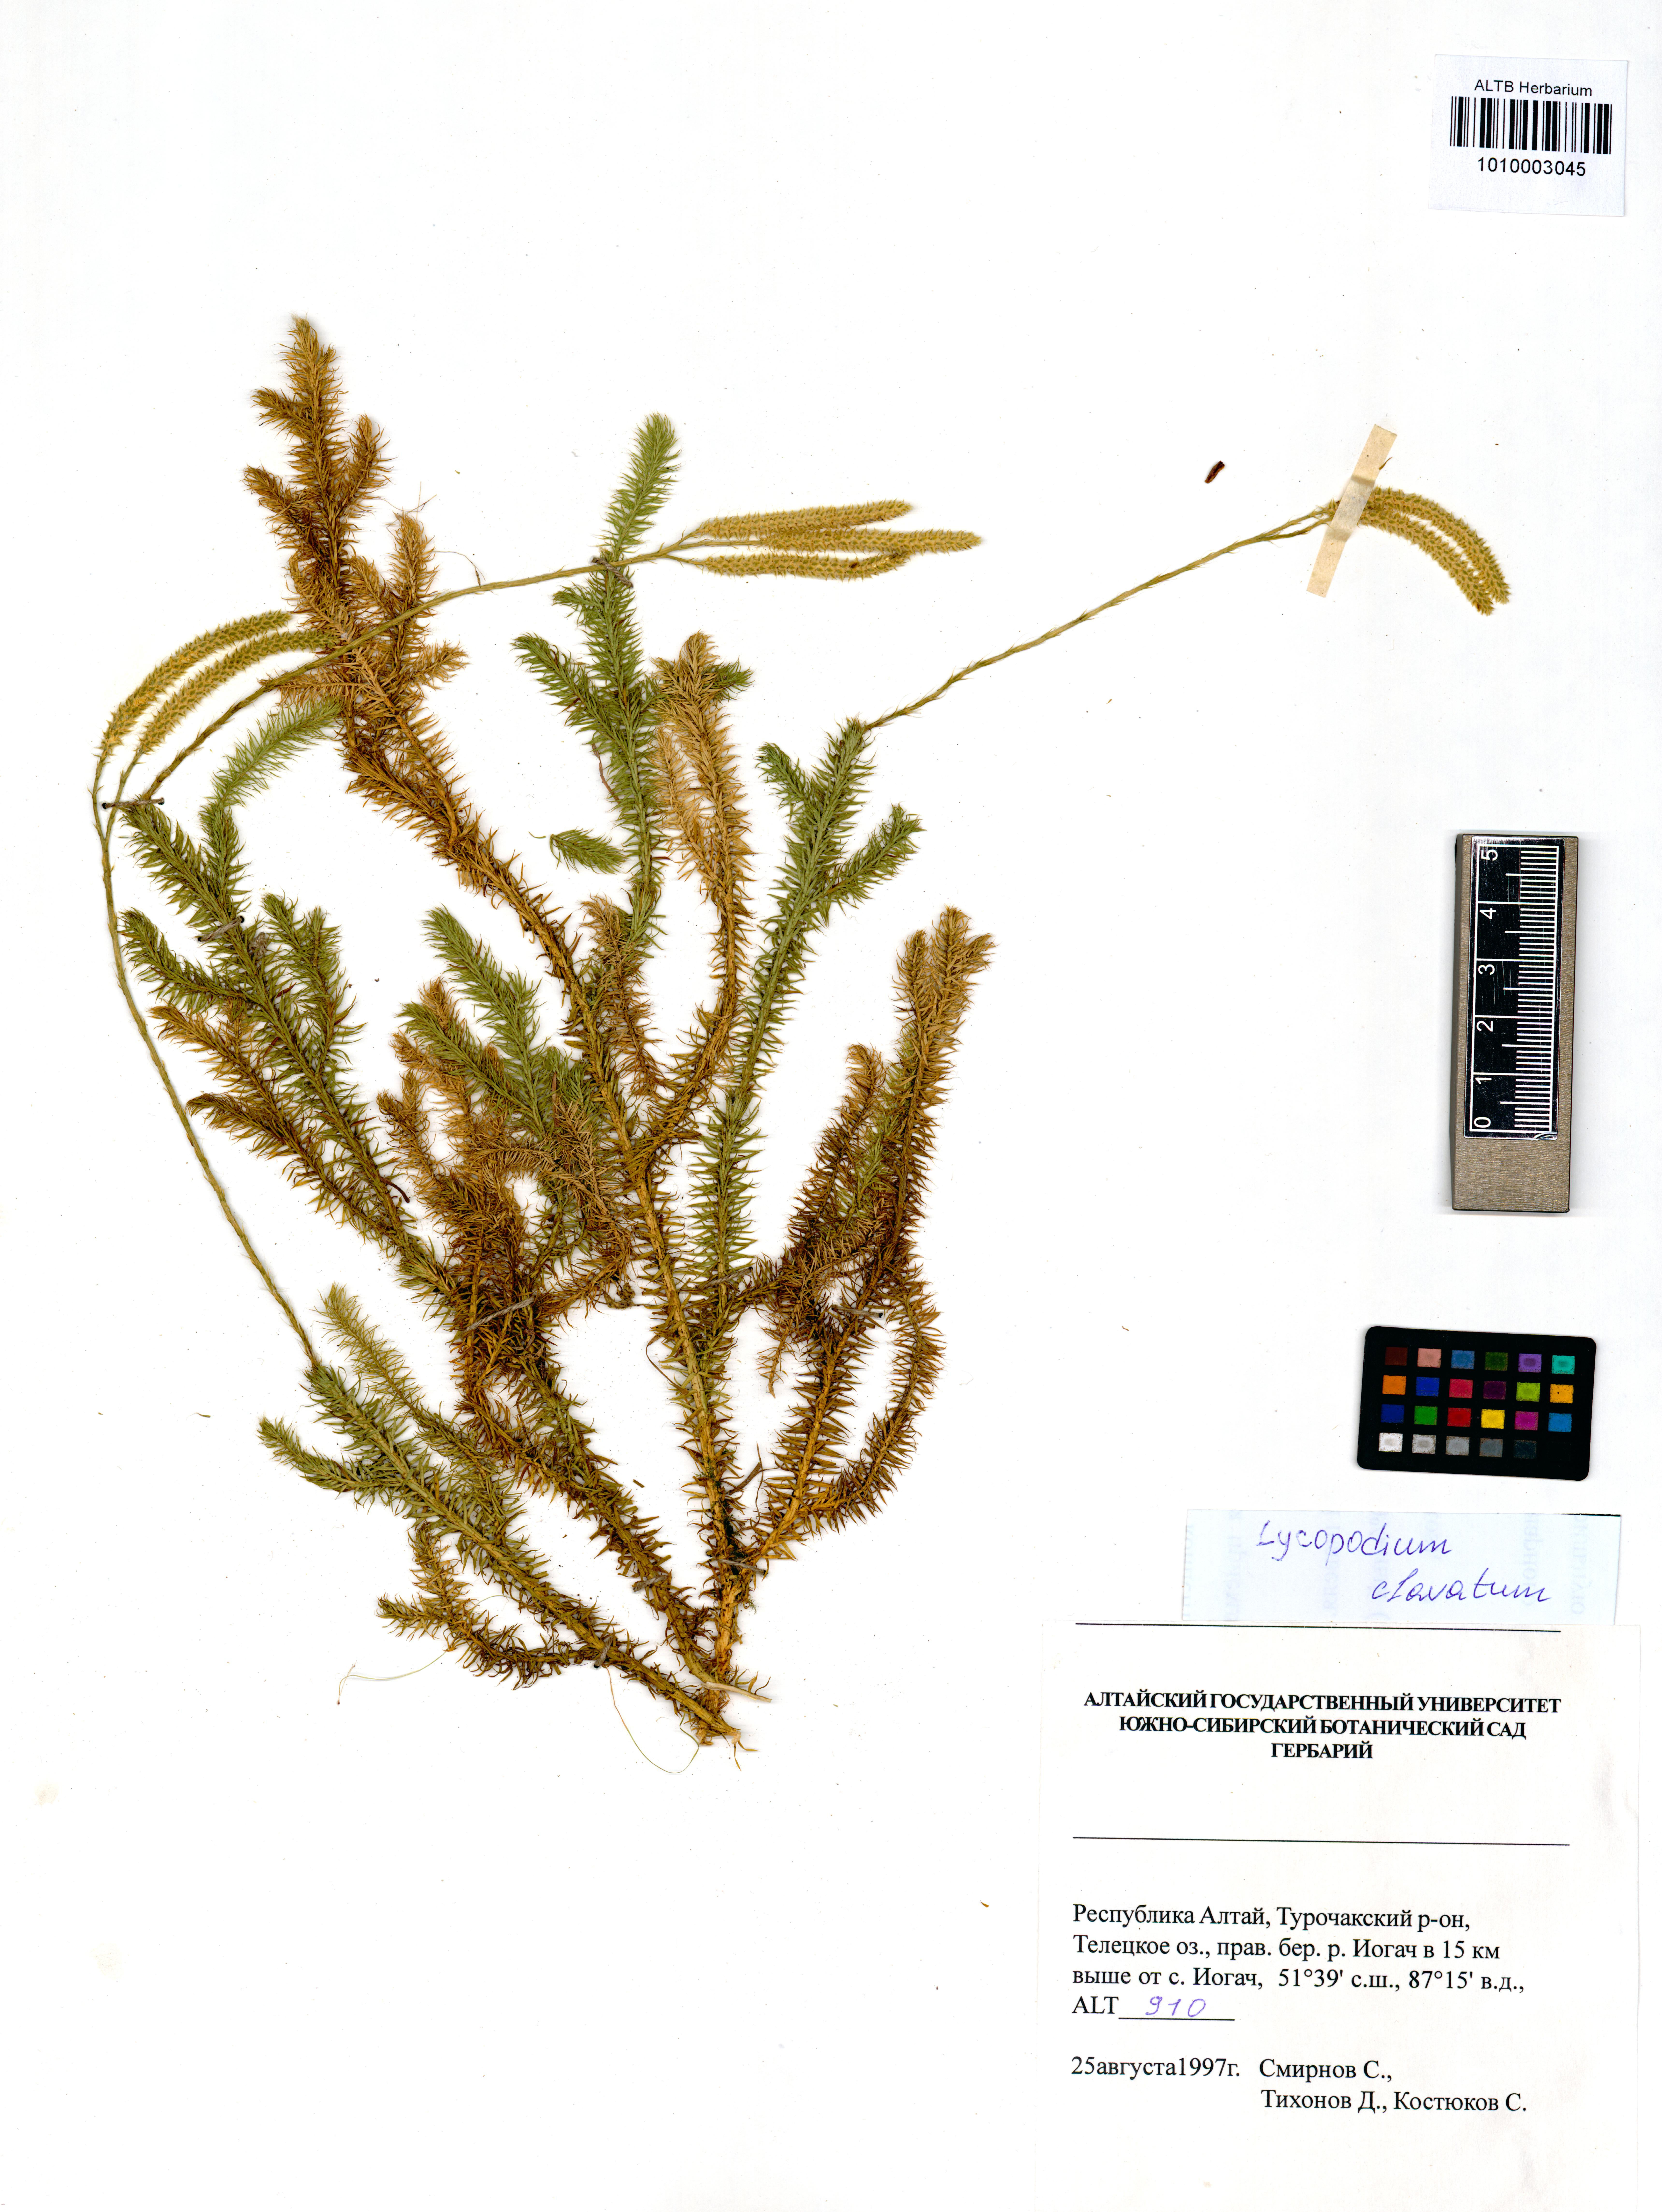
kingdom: Plantae
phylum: Tracheophyta
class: Lycopodiopsida
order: Lycopodiales
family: Lycopodiaceae
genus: Lycopodium
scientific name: Lycopodium clavatum
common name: Stag's-horn clubmoss
